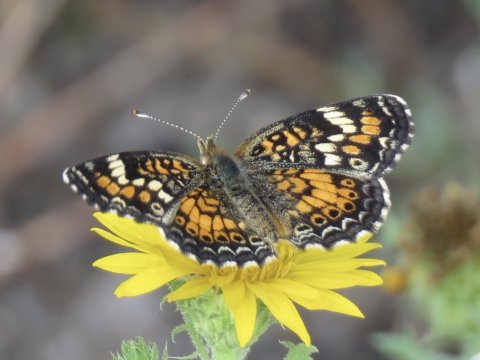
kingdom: Animalia
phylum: Arthropoda
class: Insecta
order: Lepidoptera
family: Nymphalidae
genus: Phyciodes
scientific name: Phyciodes phaon
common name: Phaon Crescent
